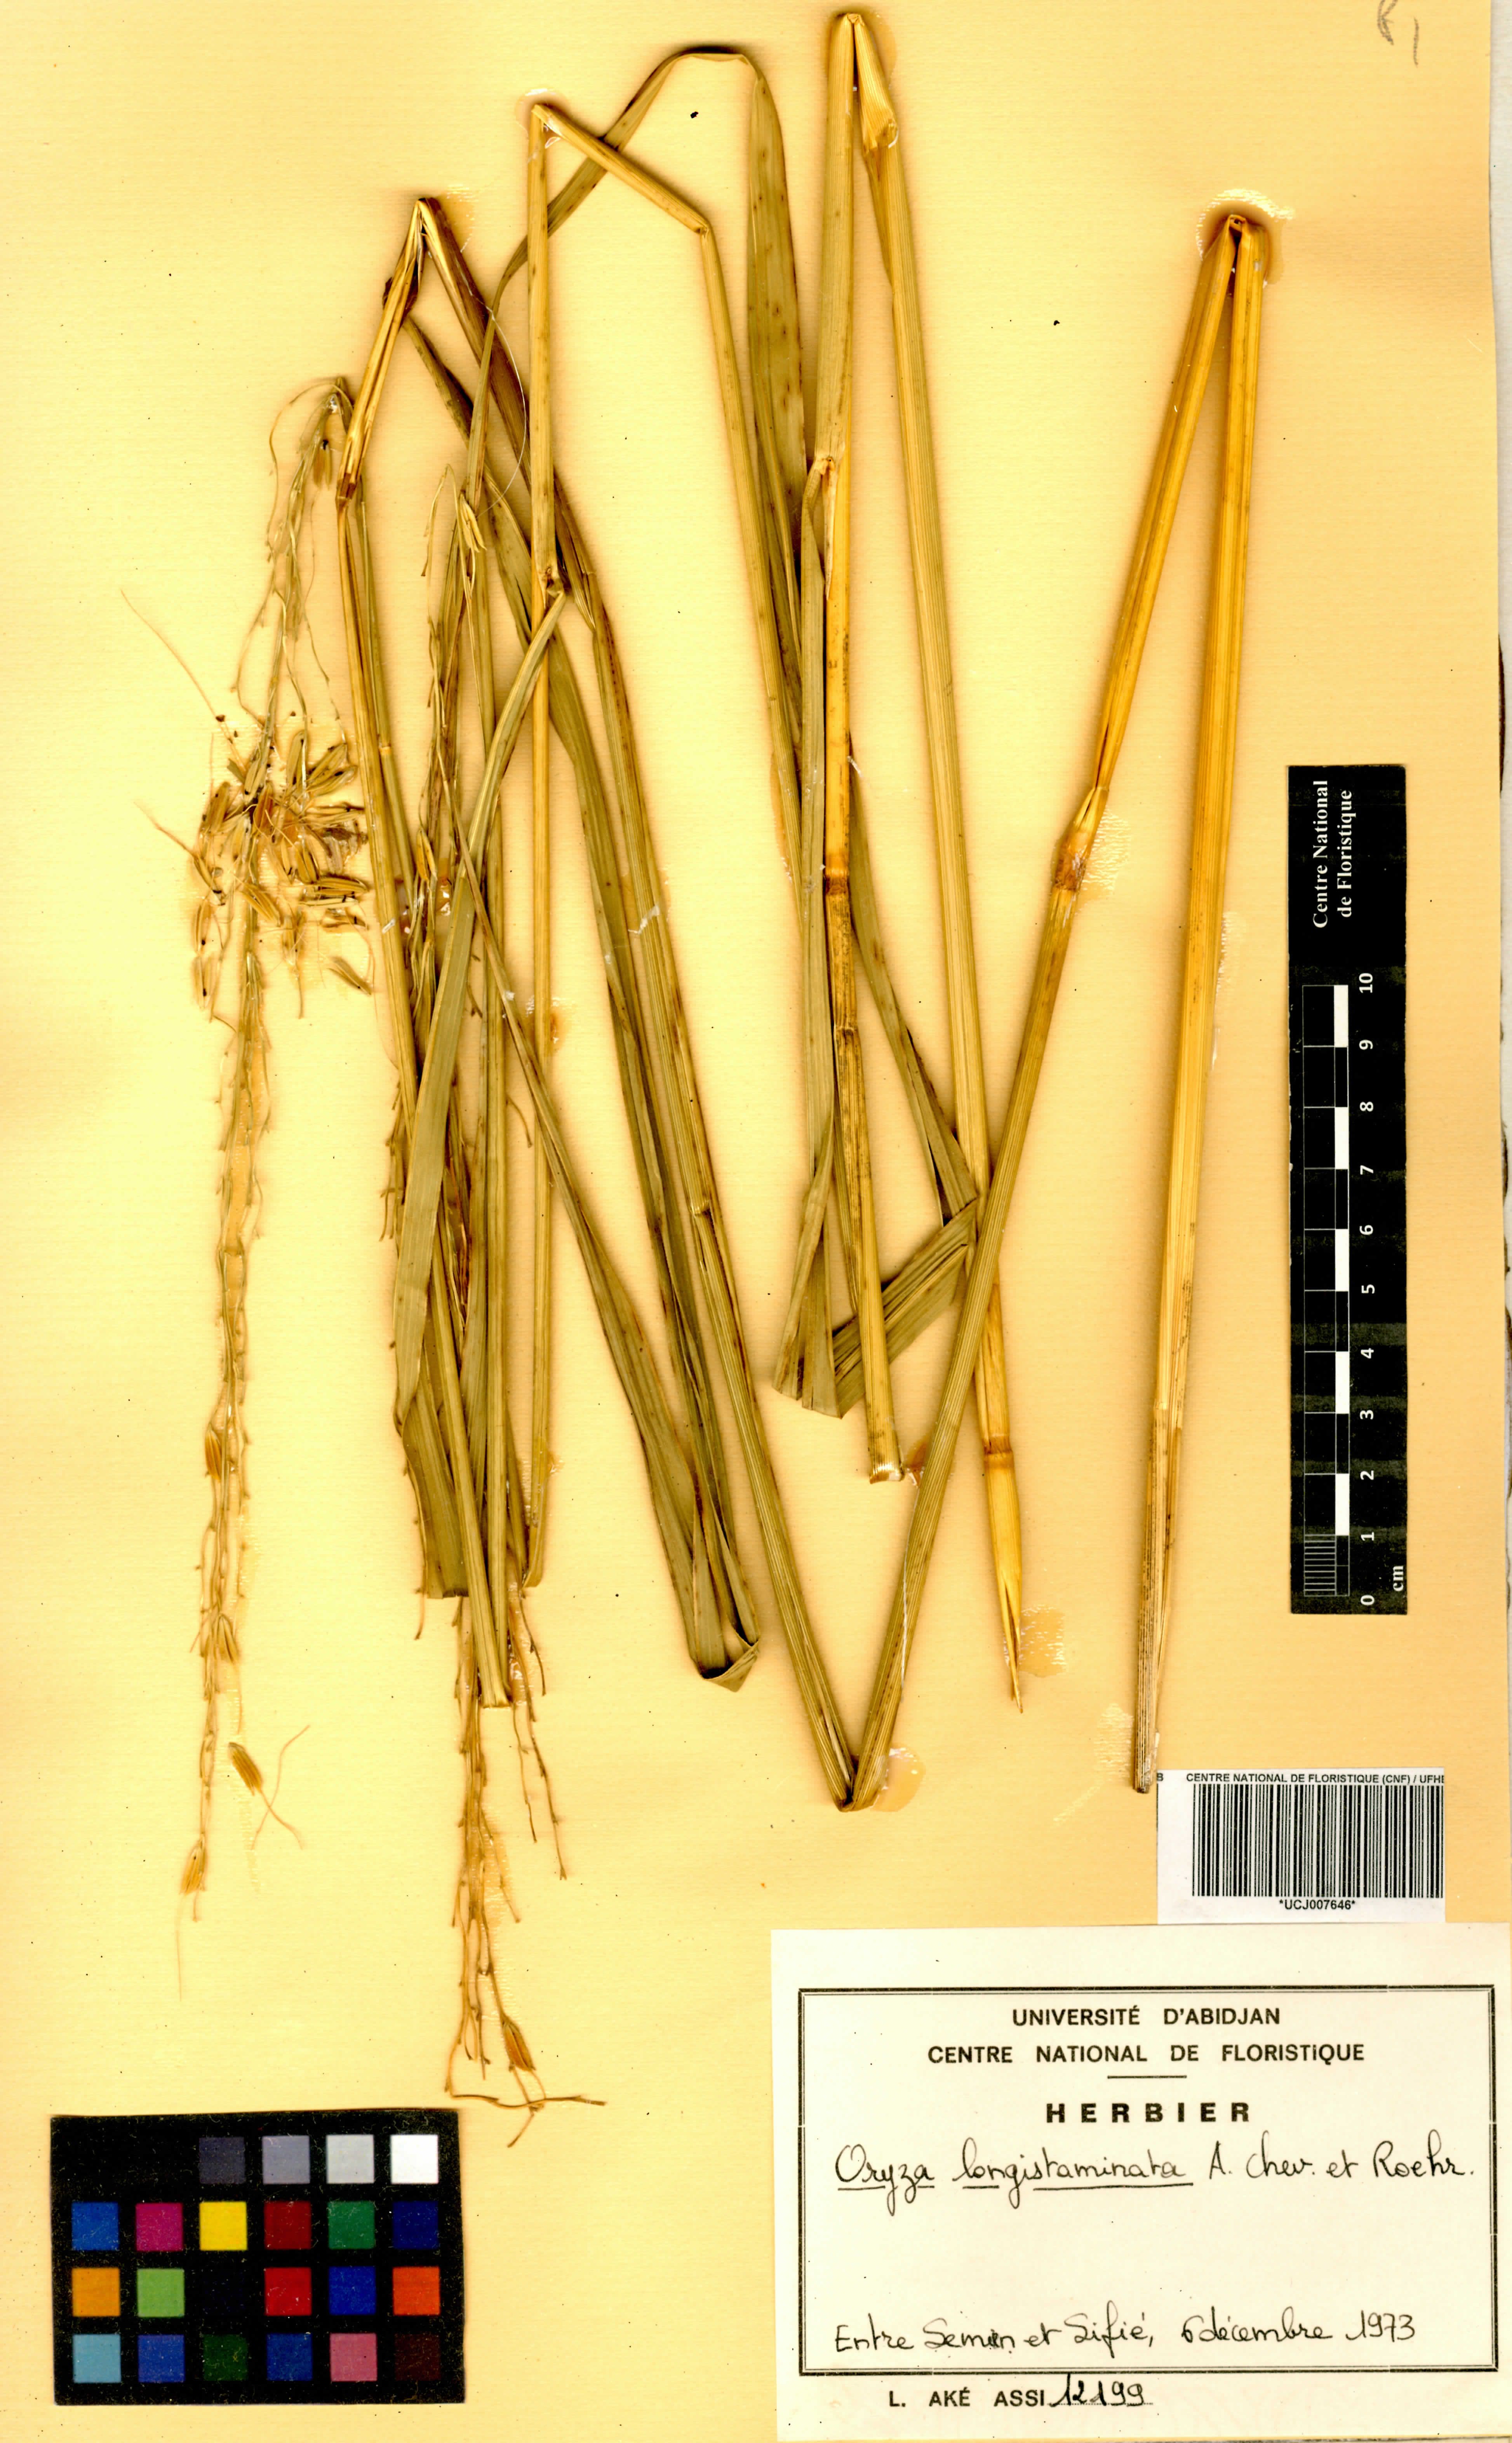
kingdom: Plantae
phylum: Tracheophyta
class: Liliopsida
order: Poales
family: Poaceae
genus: Oryza
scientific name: Oryza longistaminata
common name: Red rice
